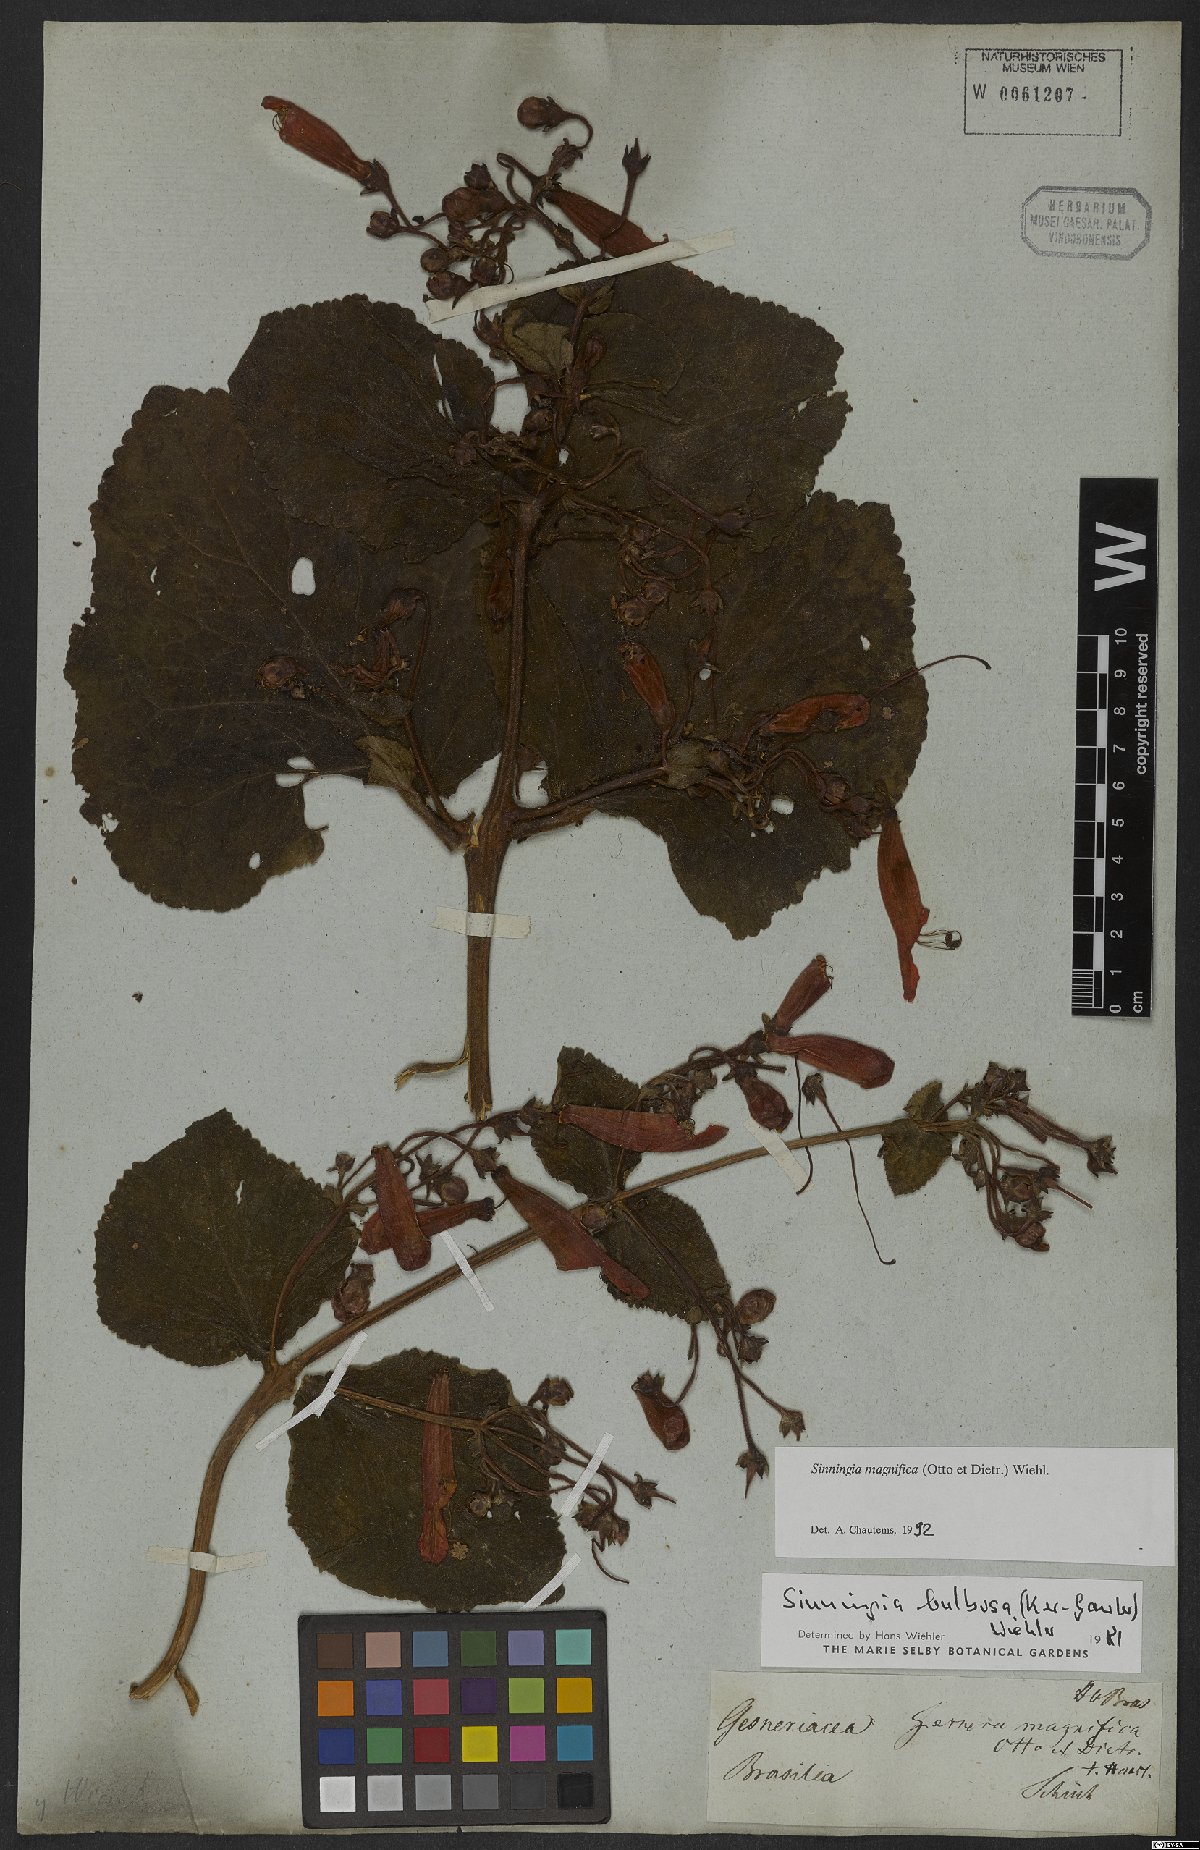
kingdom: Plantae
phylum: Tracheophyta
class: Magnoliopsida
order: Lamiales
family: Gesneriaceae
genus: Sinningia
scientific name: Sinningia magnifica
